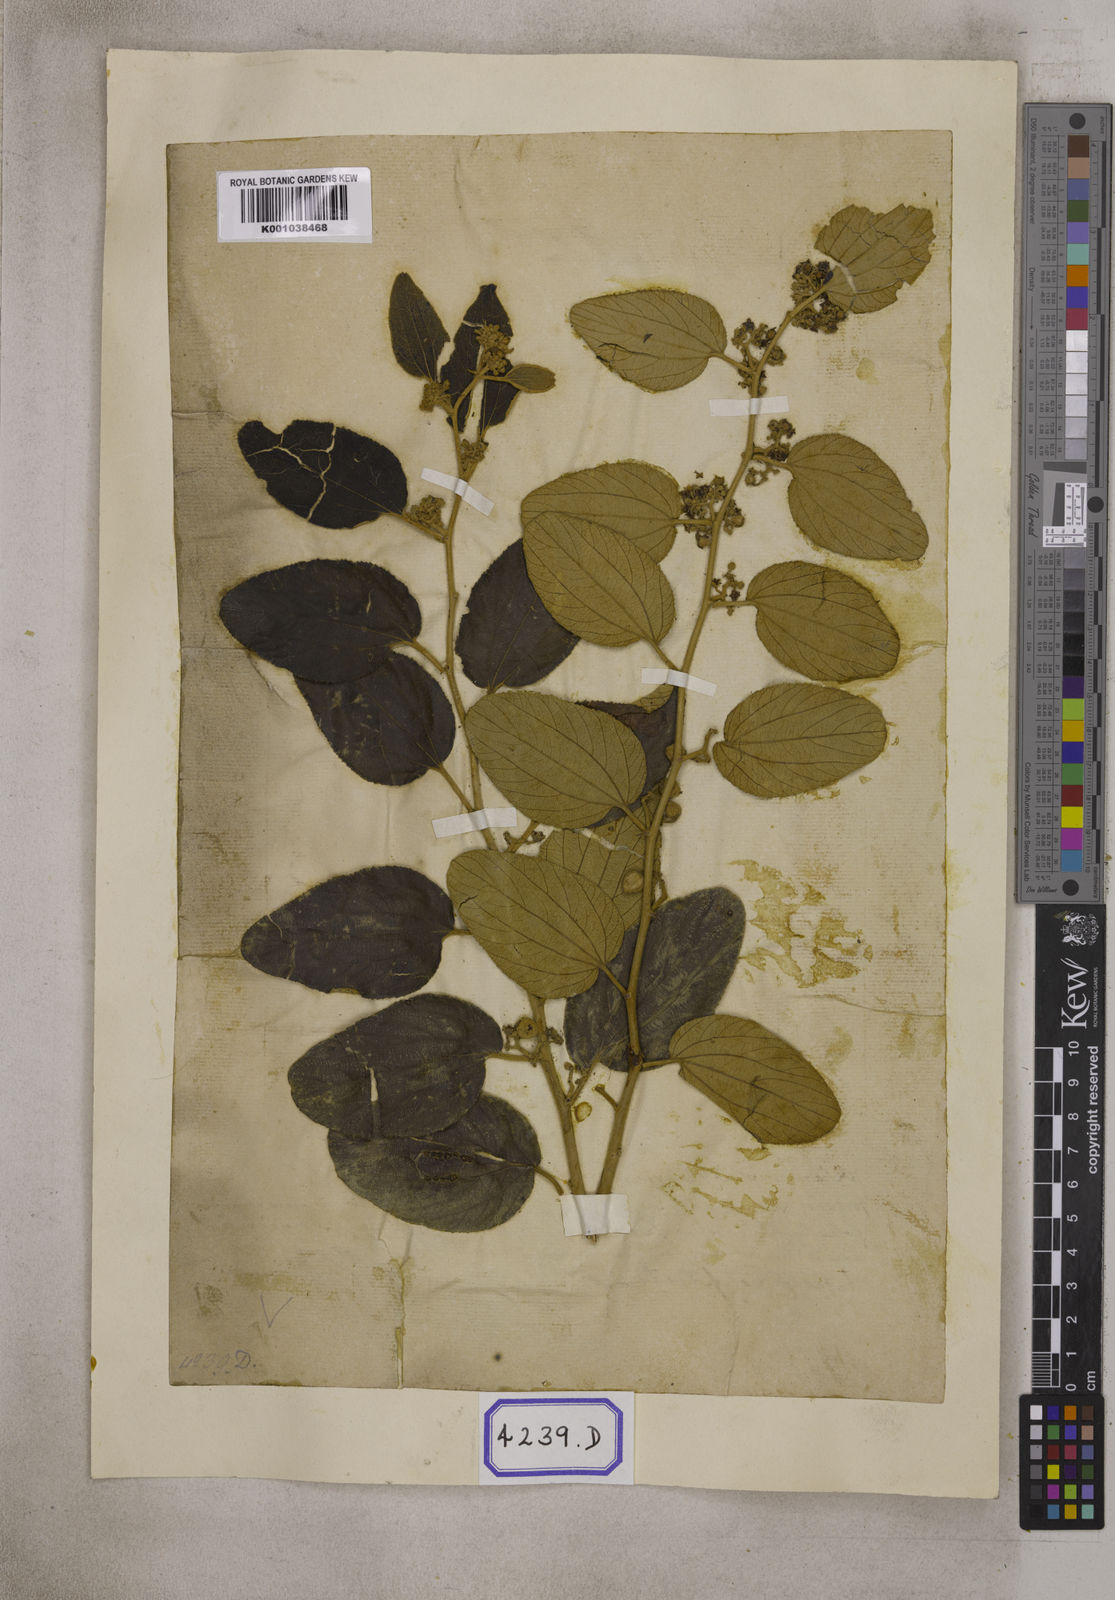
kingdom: Plantae
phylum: Tracheophyta
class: Magnoliopsida
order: Rosales
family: Rhamnaceae
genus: Ziziphus
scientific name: Ziziphus xylopyrus
